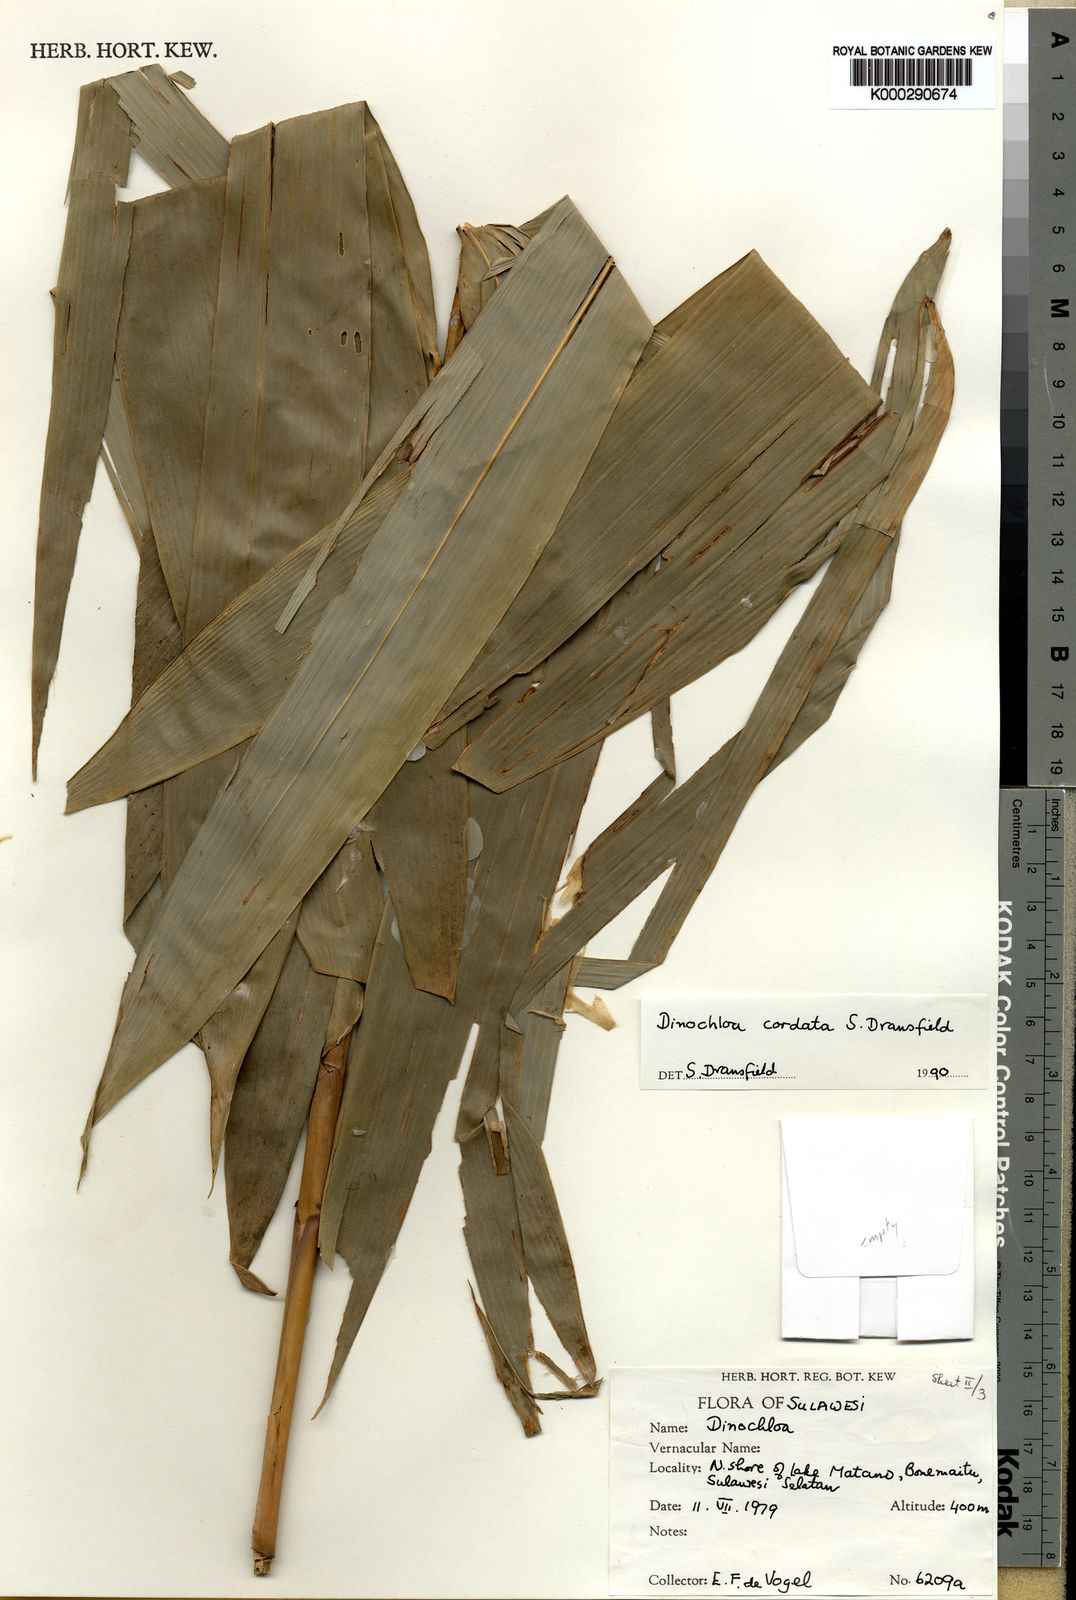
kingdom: Plantae
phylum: Tracheophyta
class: Liliopsida
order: Poales
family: Poaceae
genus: Dinochloa
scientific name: Dinochloa cordata
